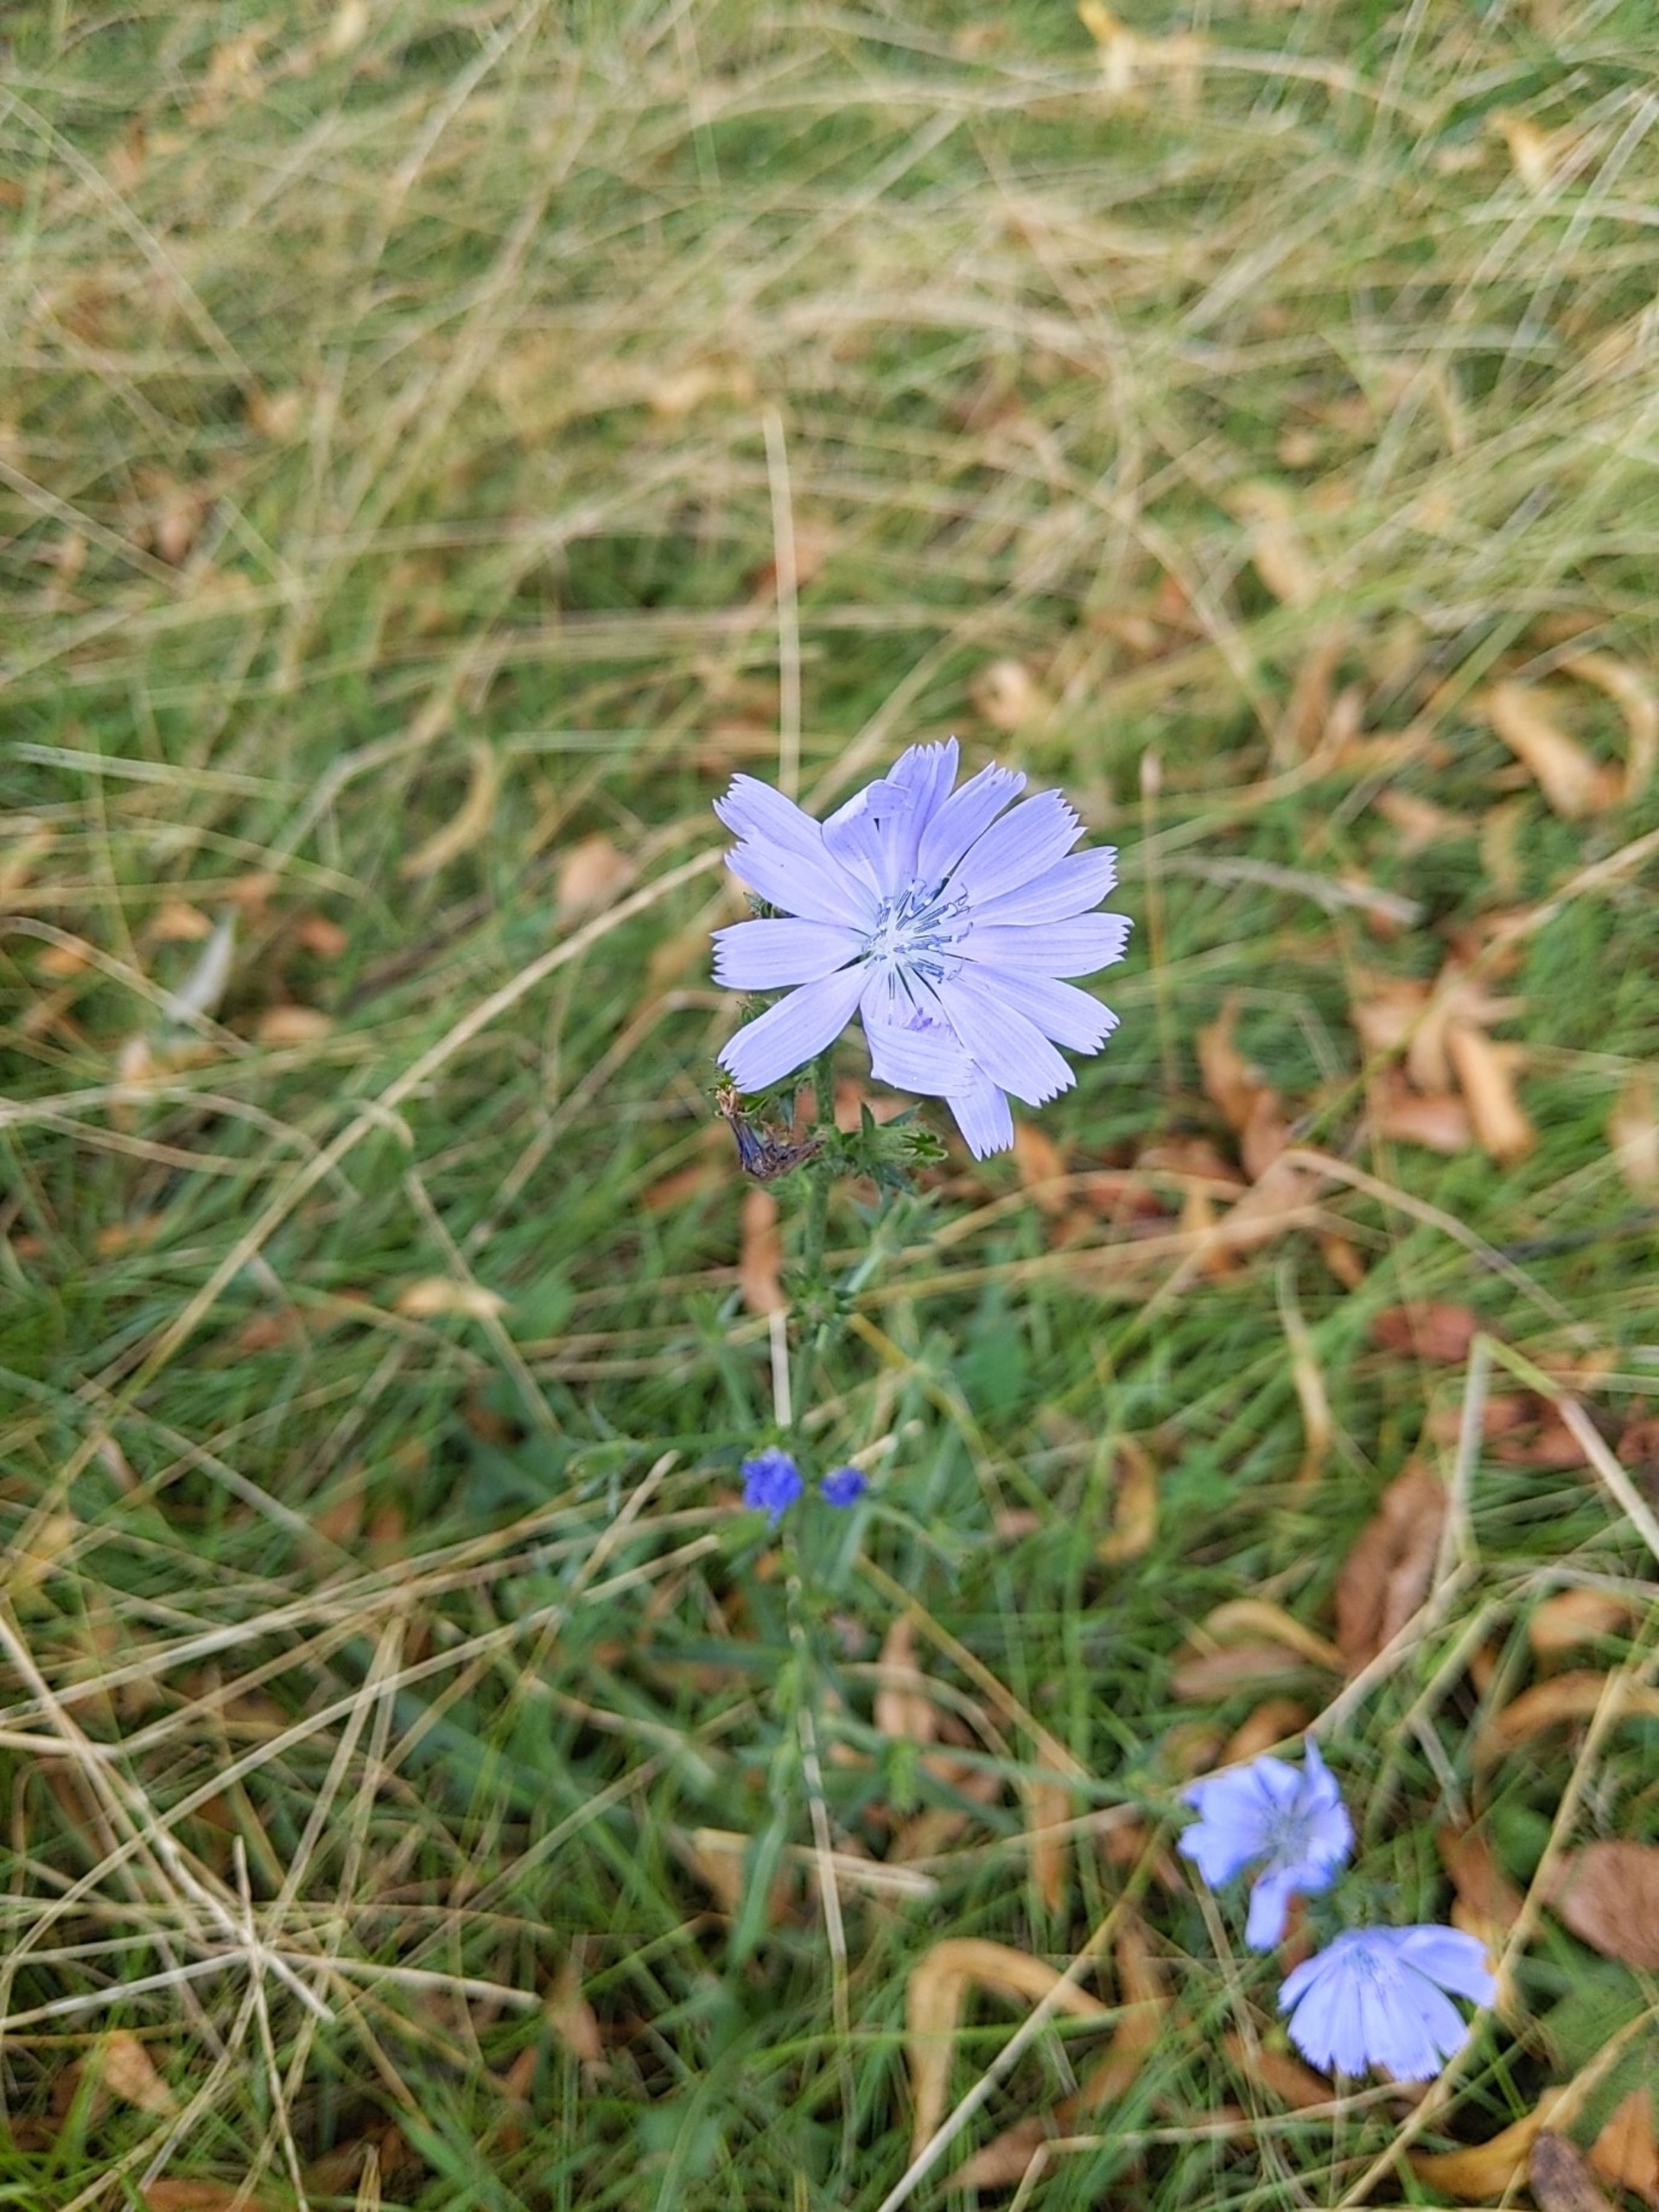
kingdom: Plantae
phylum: Tracheophyta
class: Magnoliopsida
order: Asterales
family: Asteraceae
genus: Cichorium
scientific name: Cichorium intybus
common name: Cikorie
